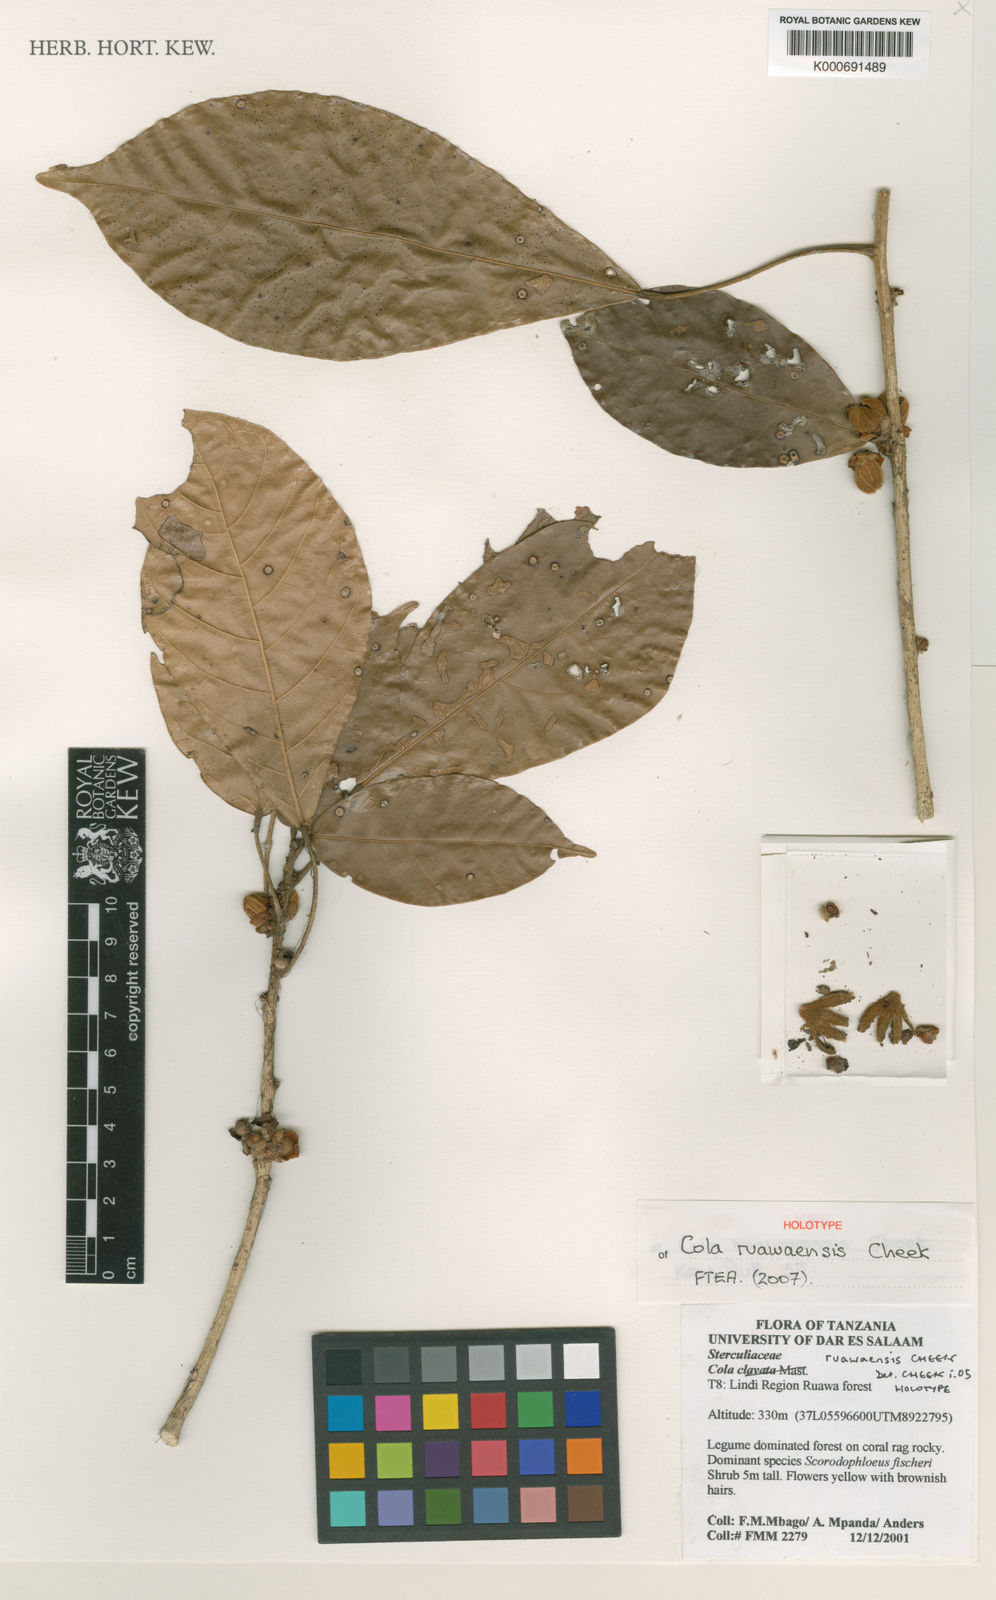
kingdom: Plantae
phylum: Tracheophyta
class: Magnoliopsida
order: Malvales
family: Malvaceae
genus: Cola
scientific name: Cola ruawaensis
